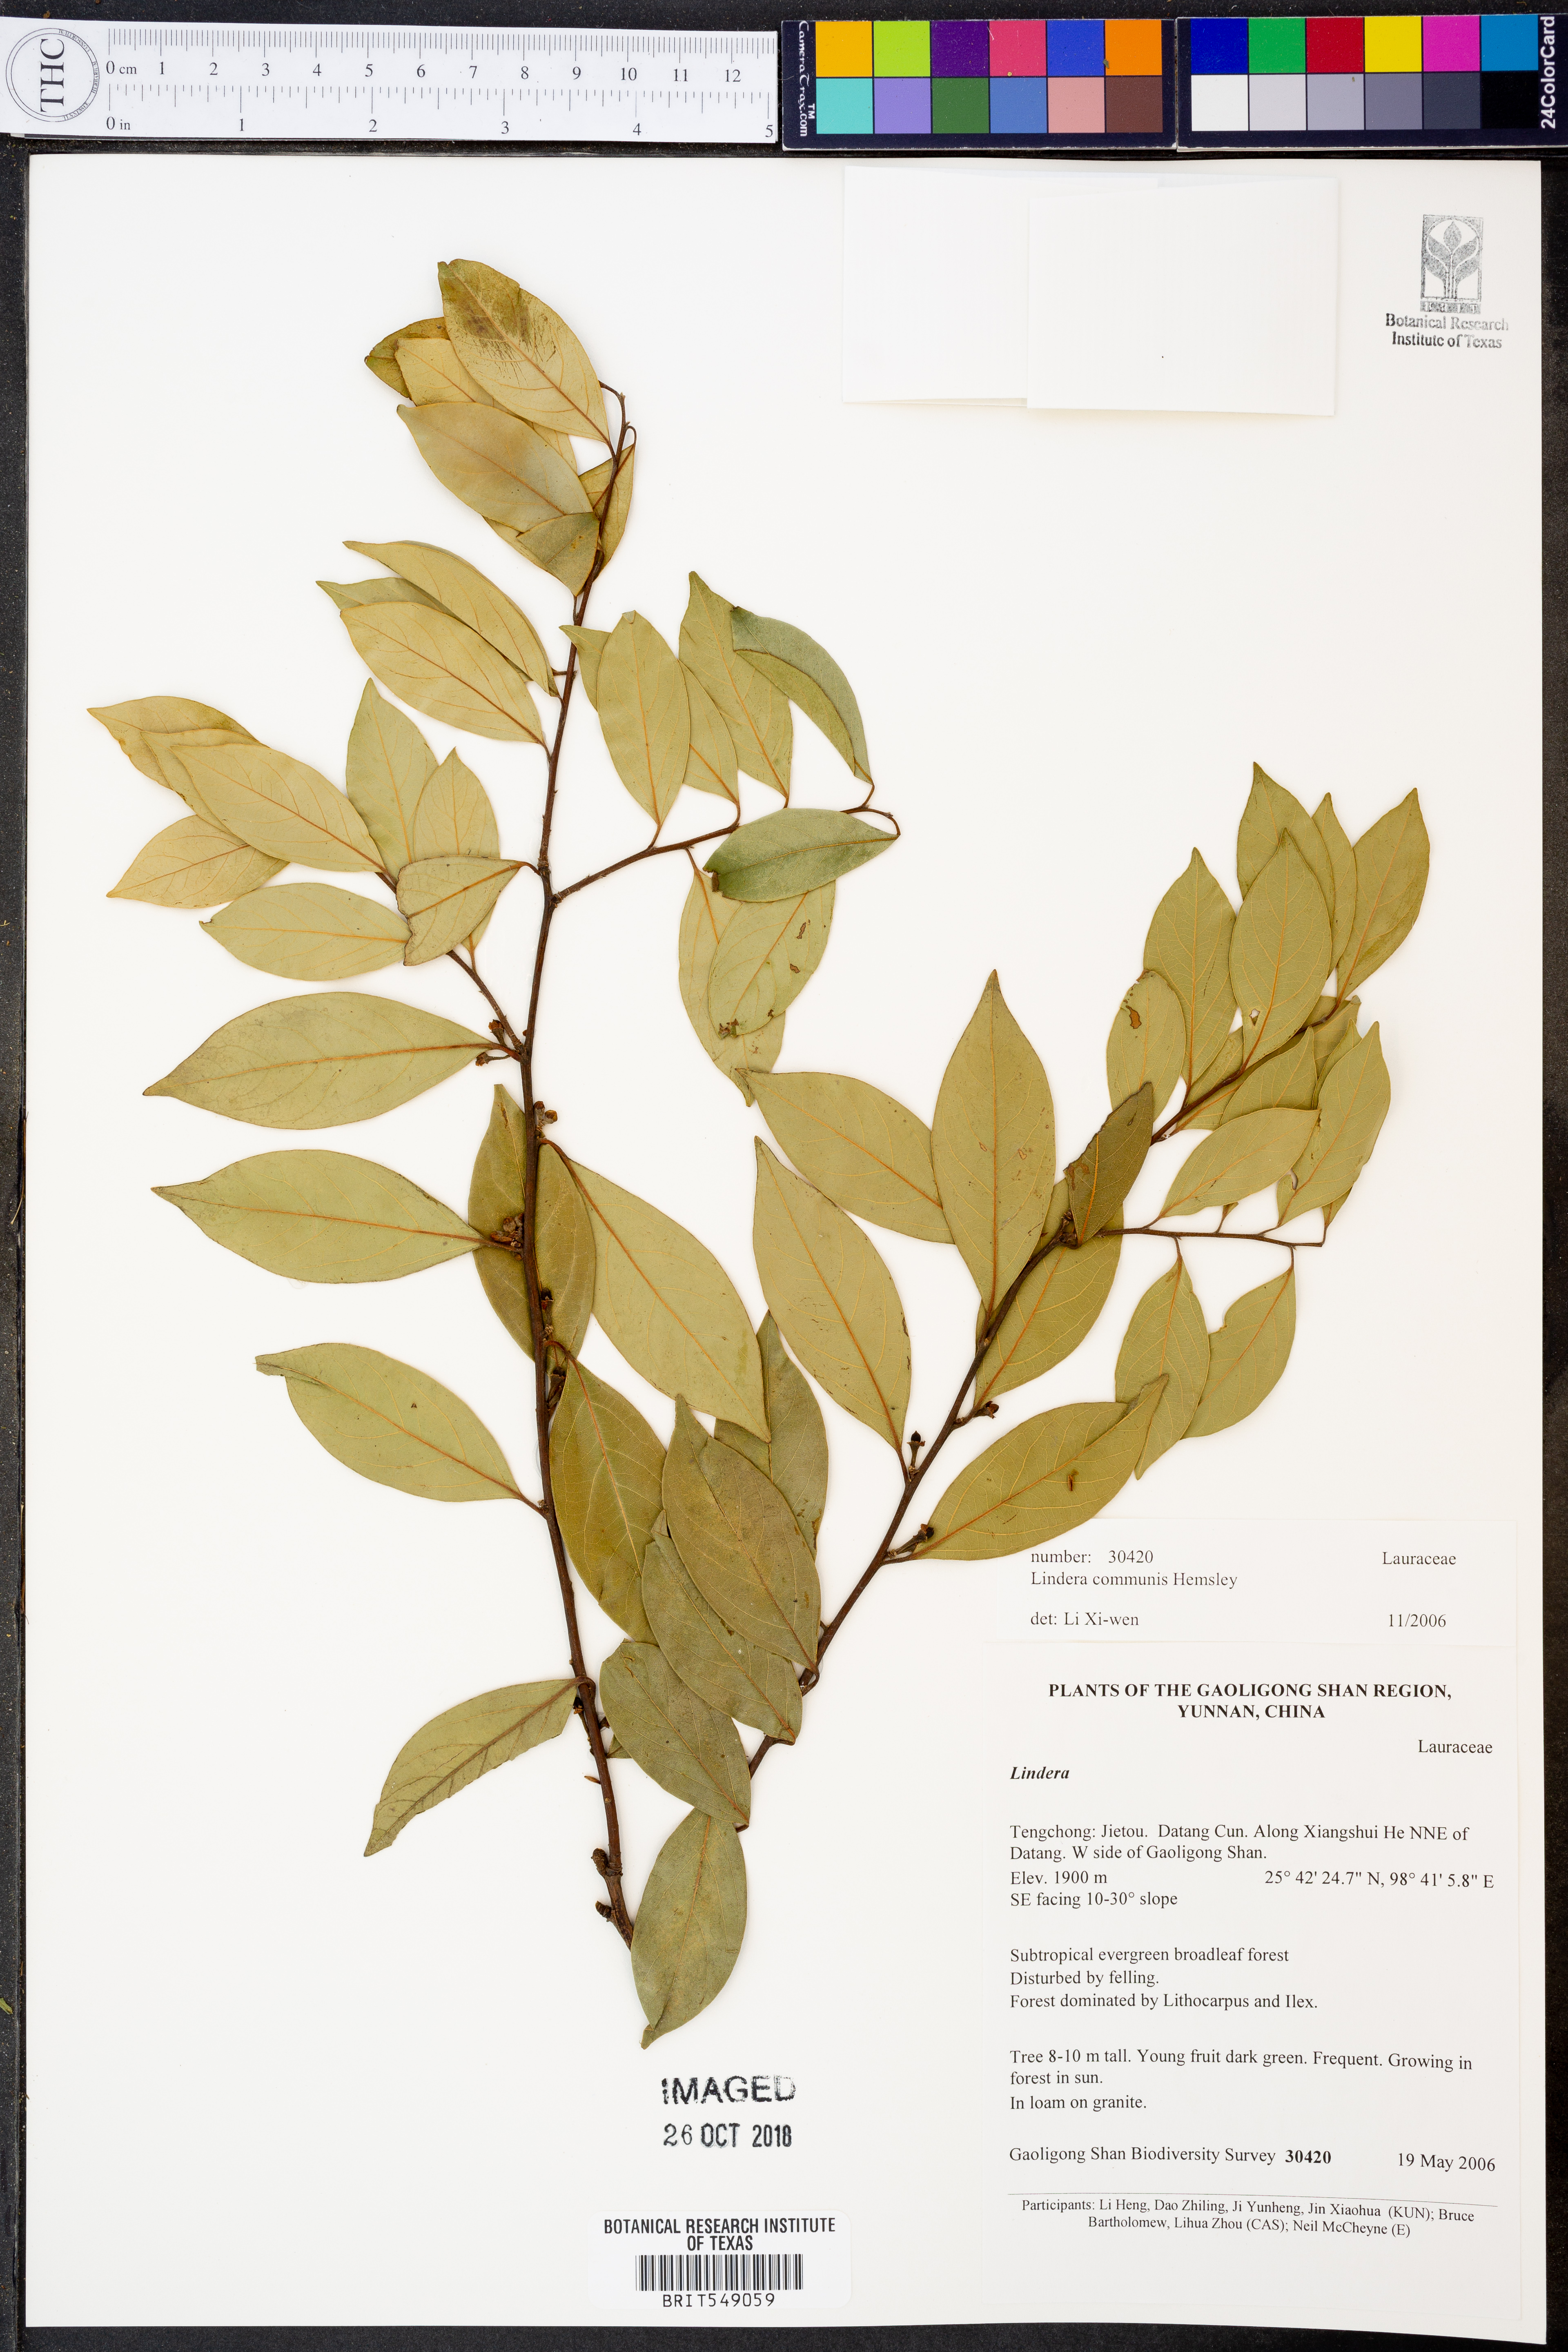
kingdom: Plantae
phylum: Tracheophyta
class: Magnoliopsida
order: Laurales
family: Lauraceae
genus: Lindera
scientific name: Lindera communis
